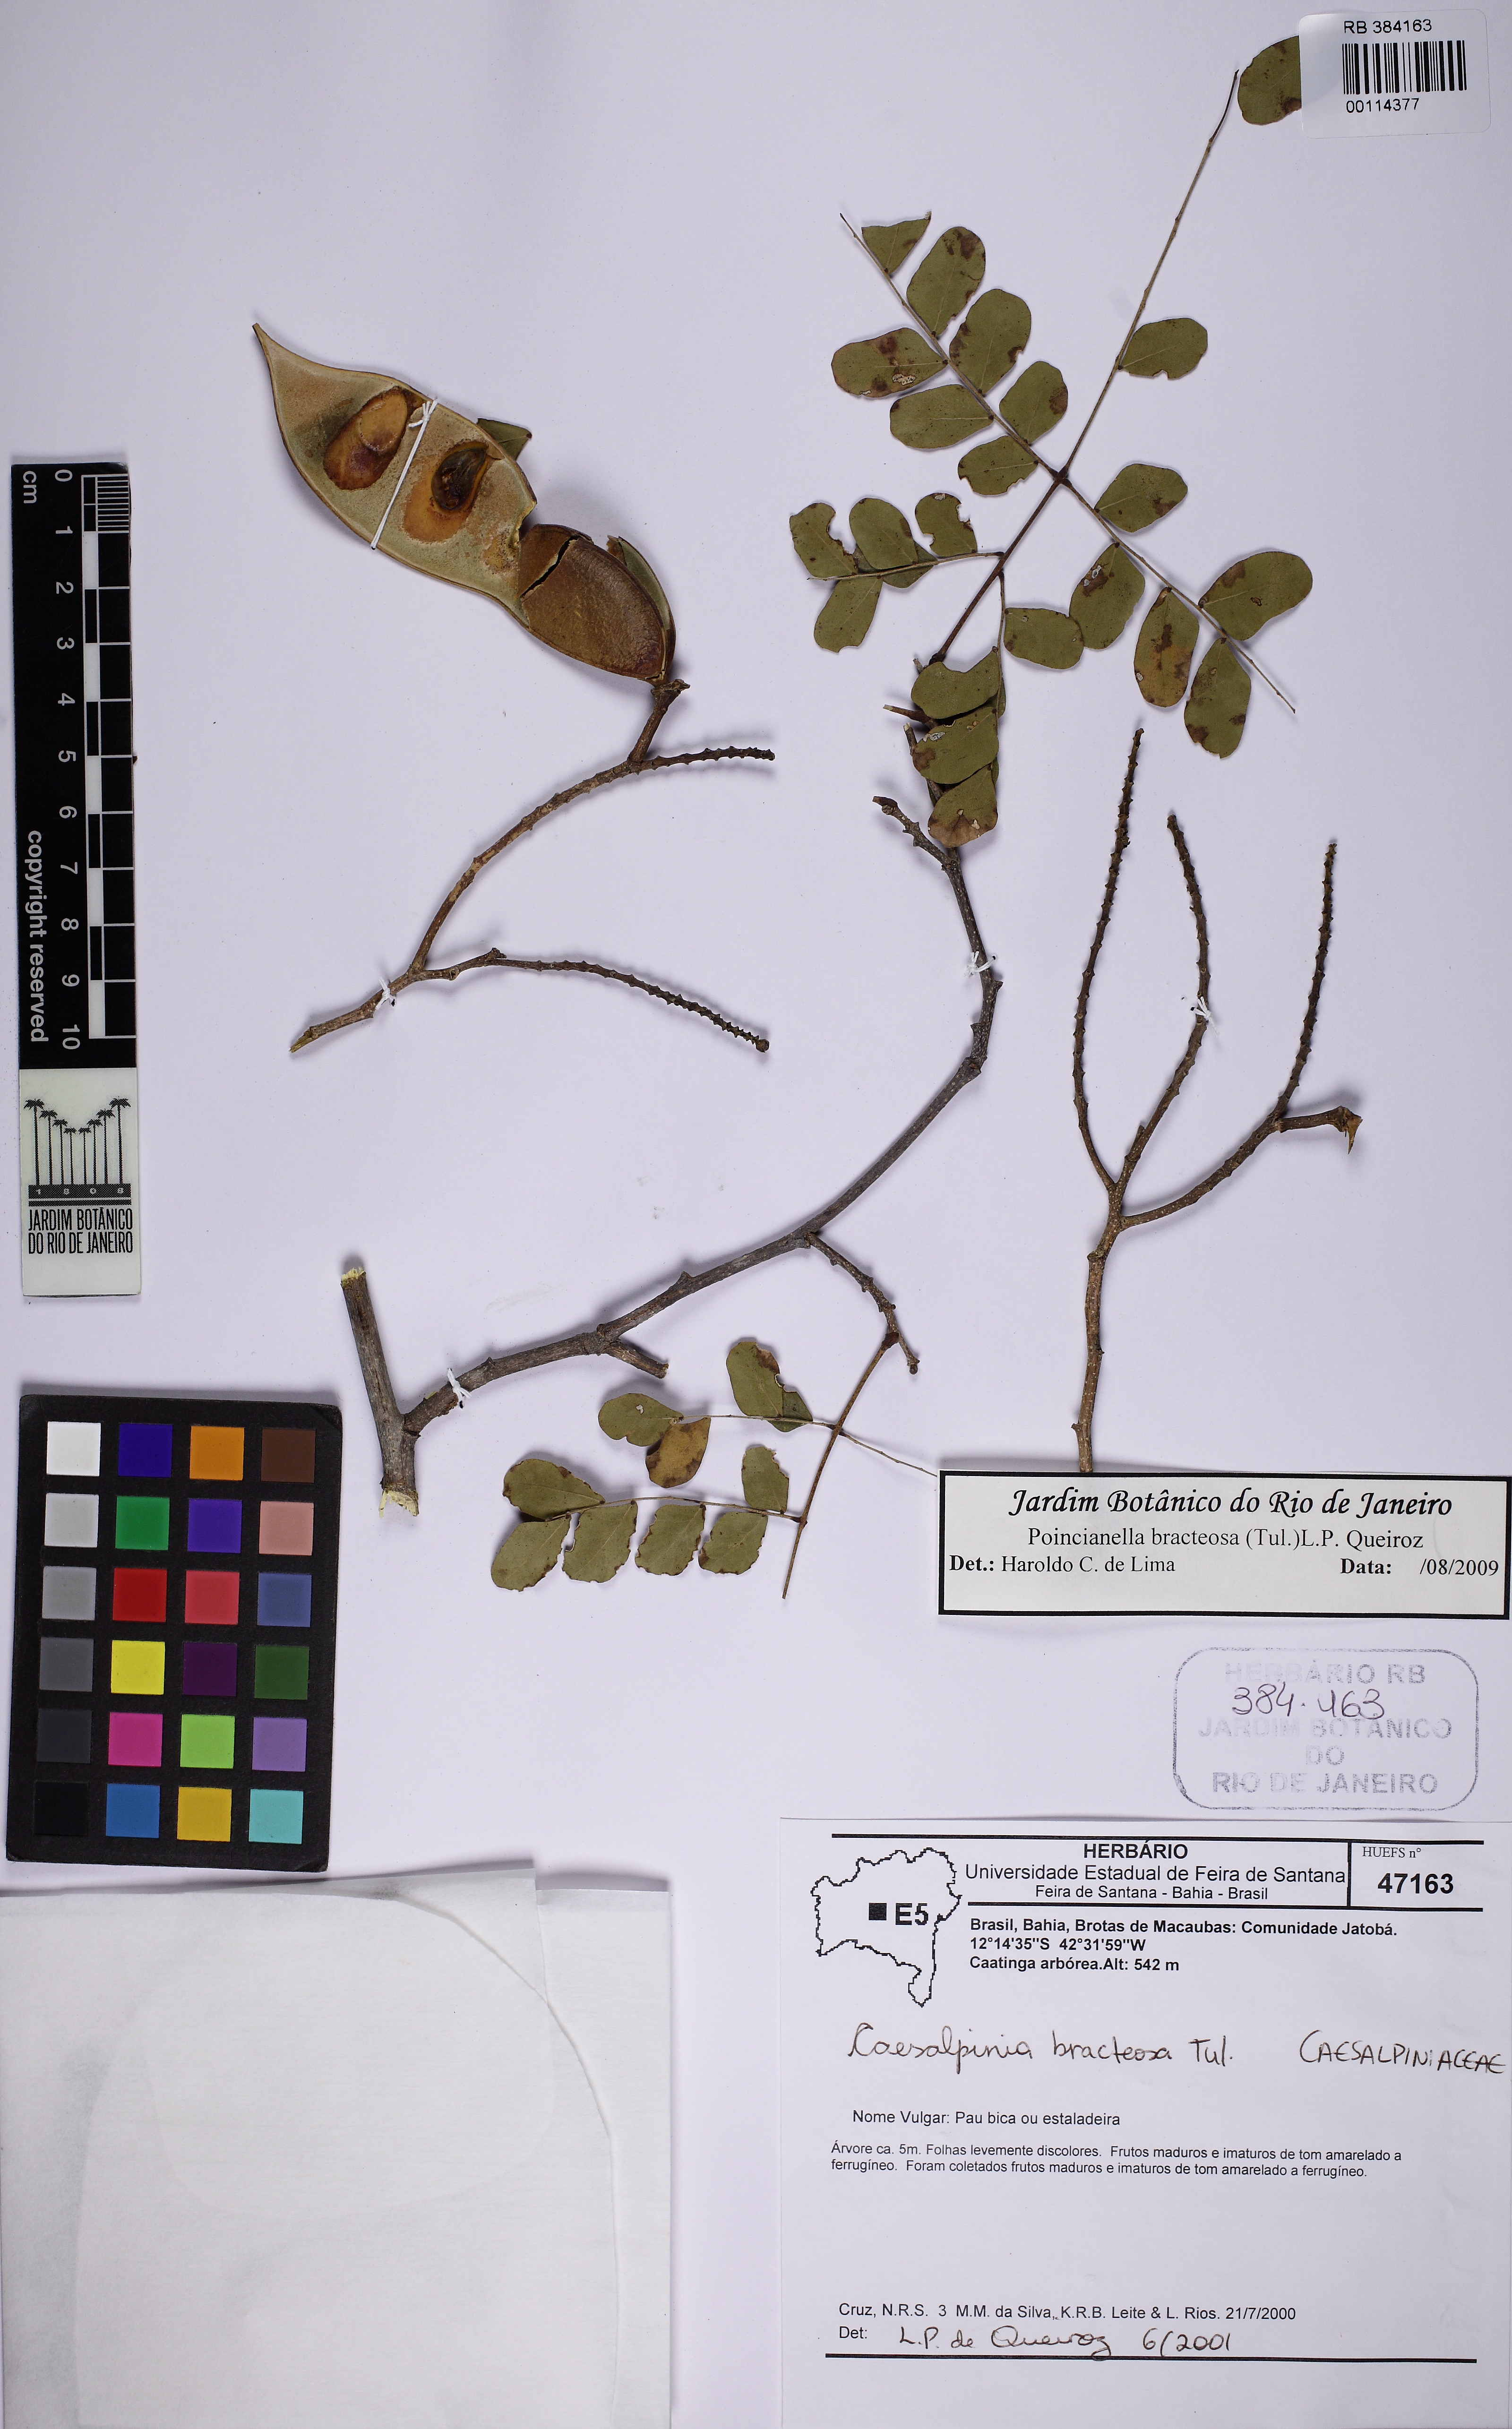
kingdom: Plantae
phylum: Tracheophyta
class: Magnoliopsida
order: Fabales
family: Fabaceae
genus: Cenostigma
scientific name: Cenostigma bracteosum
